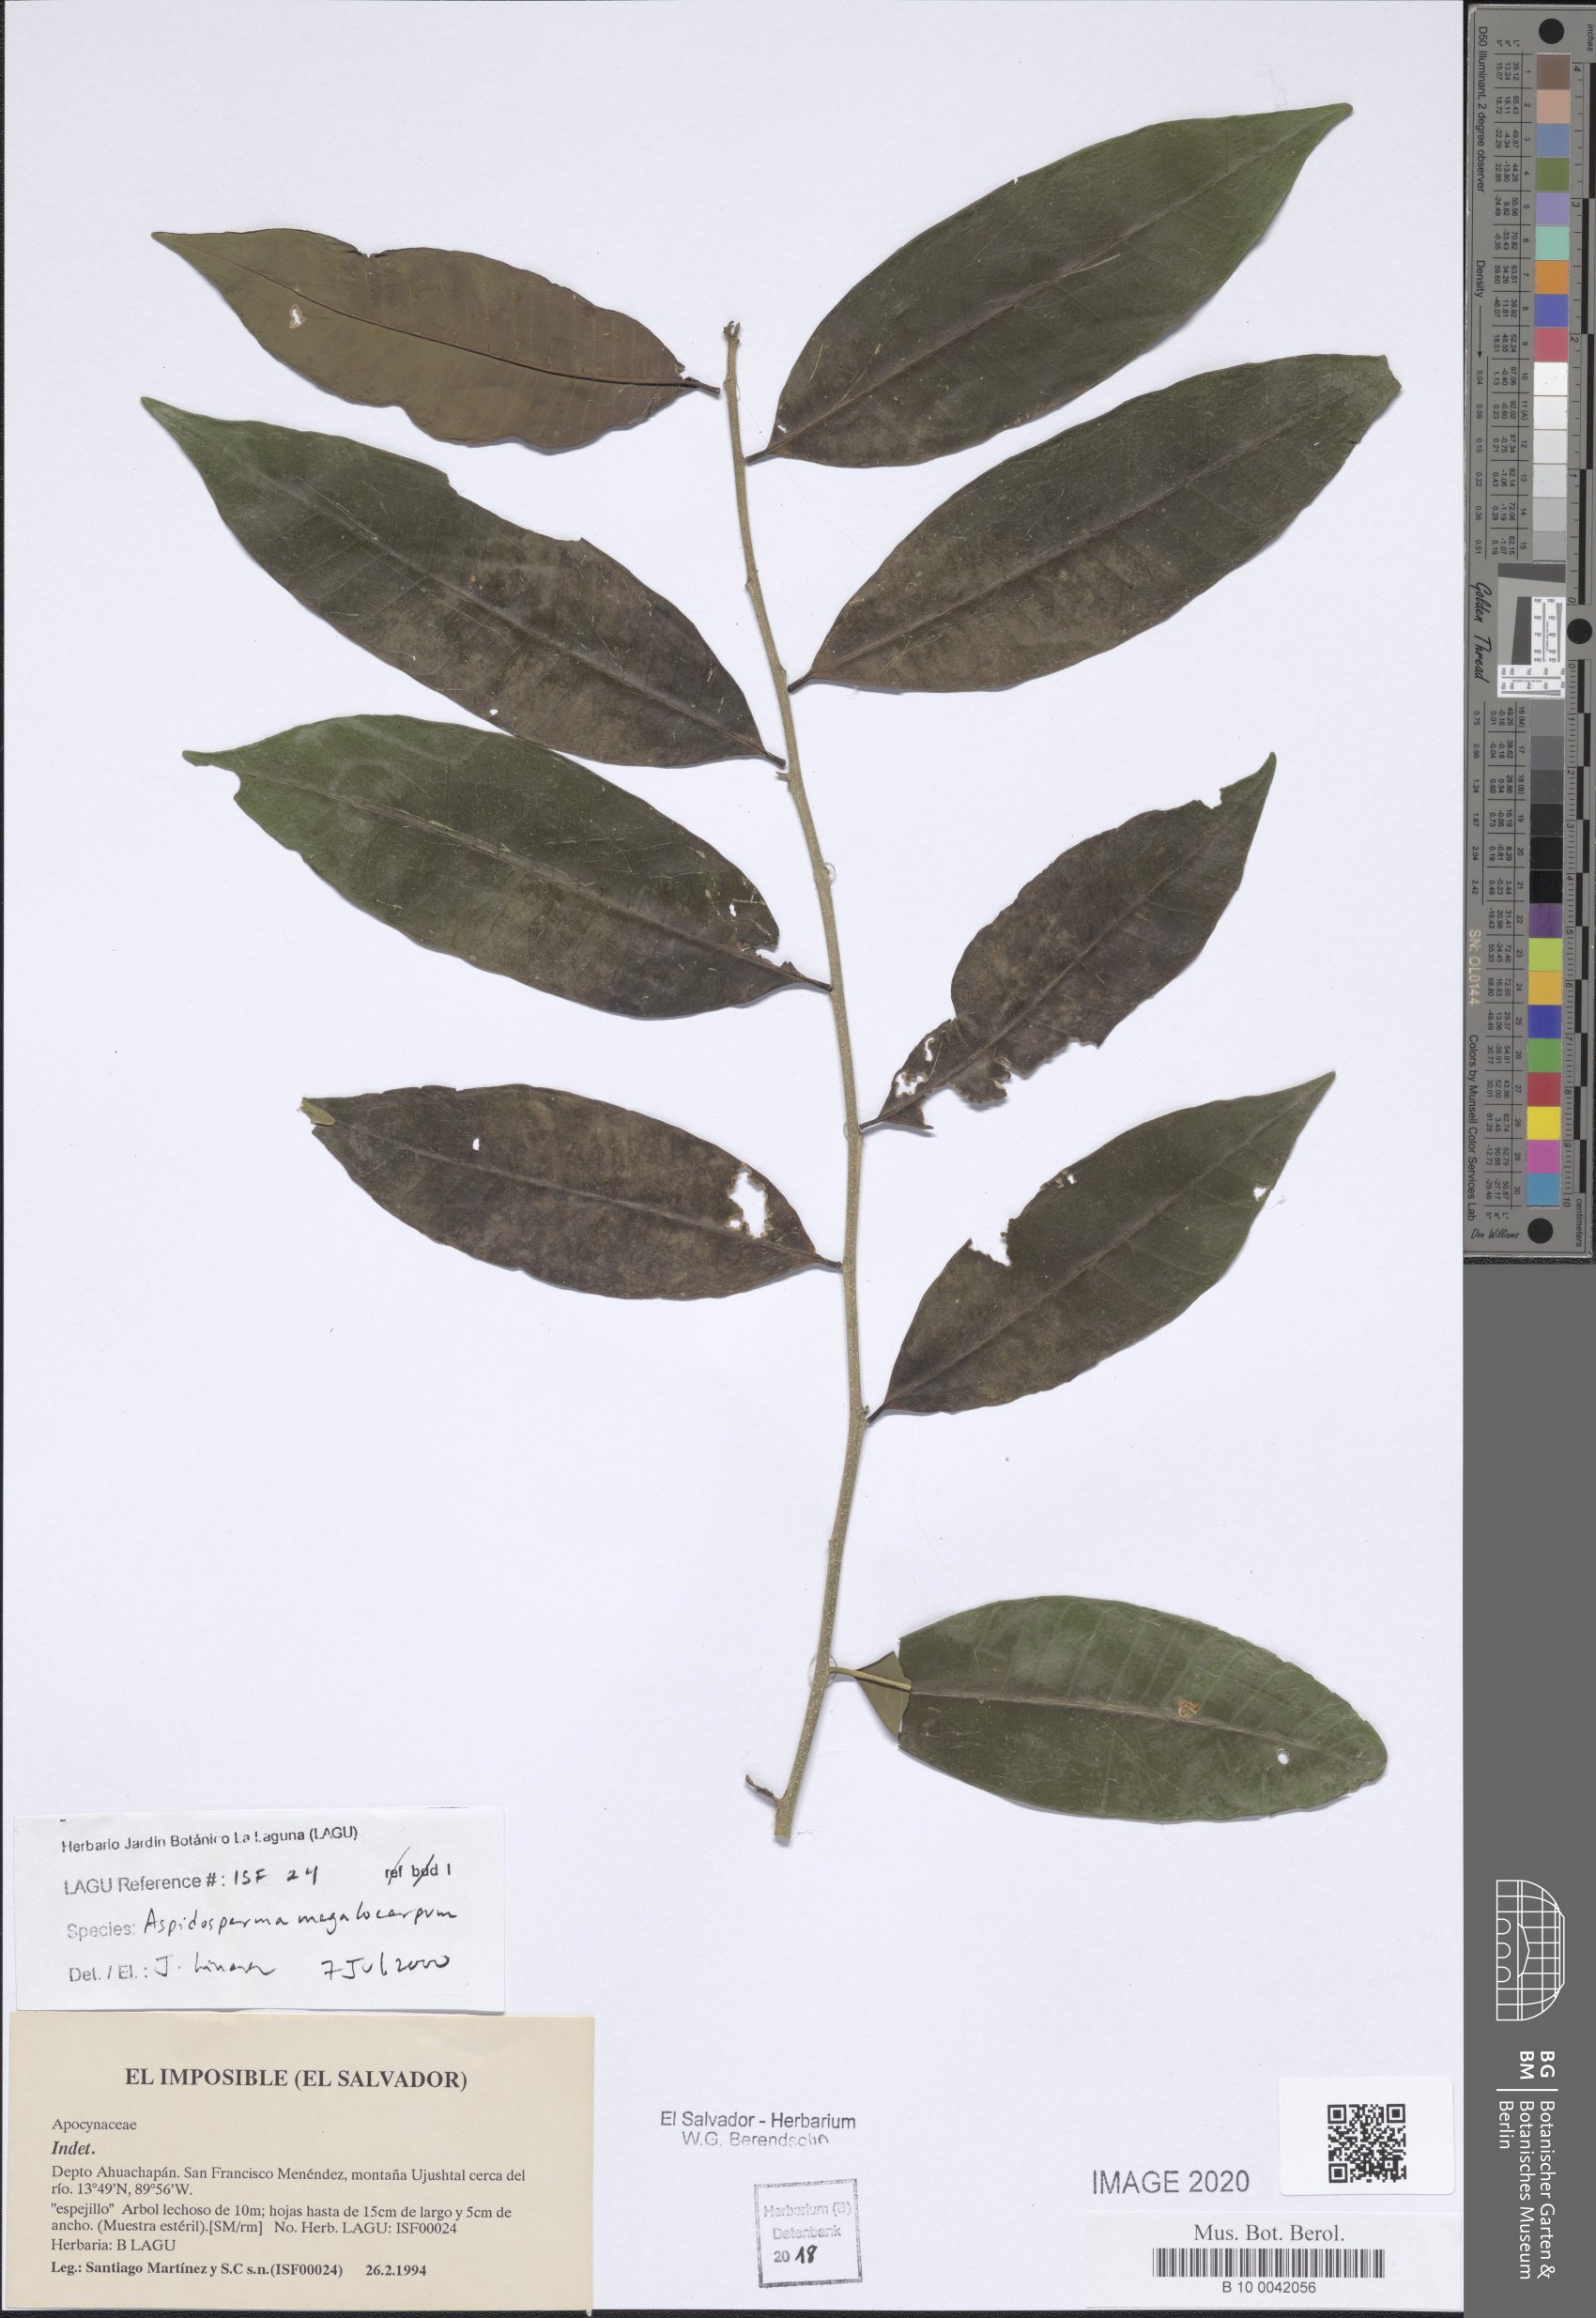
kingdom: Plantae
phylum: Tracheophyta
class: Magnoliopsida
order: Gentianales
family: Apocynaceae
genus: Aspidosperma
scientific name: Aspidosperma megalocarpon
